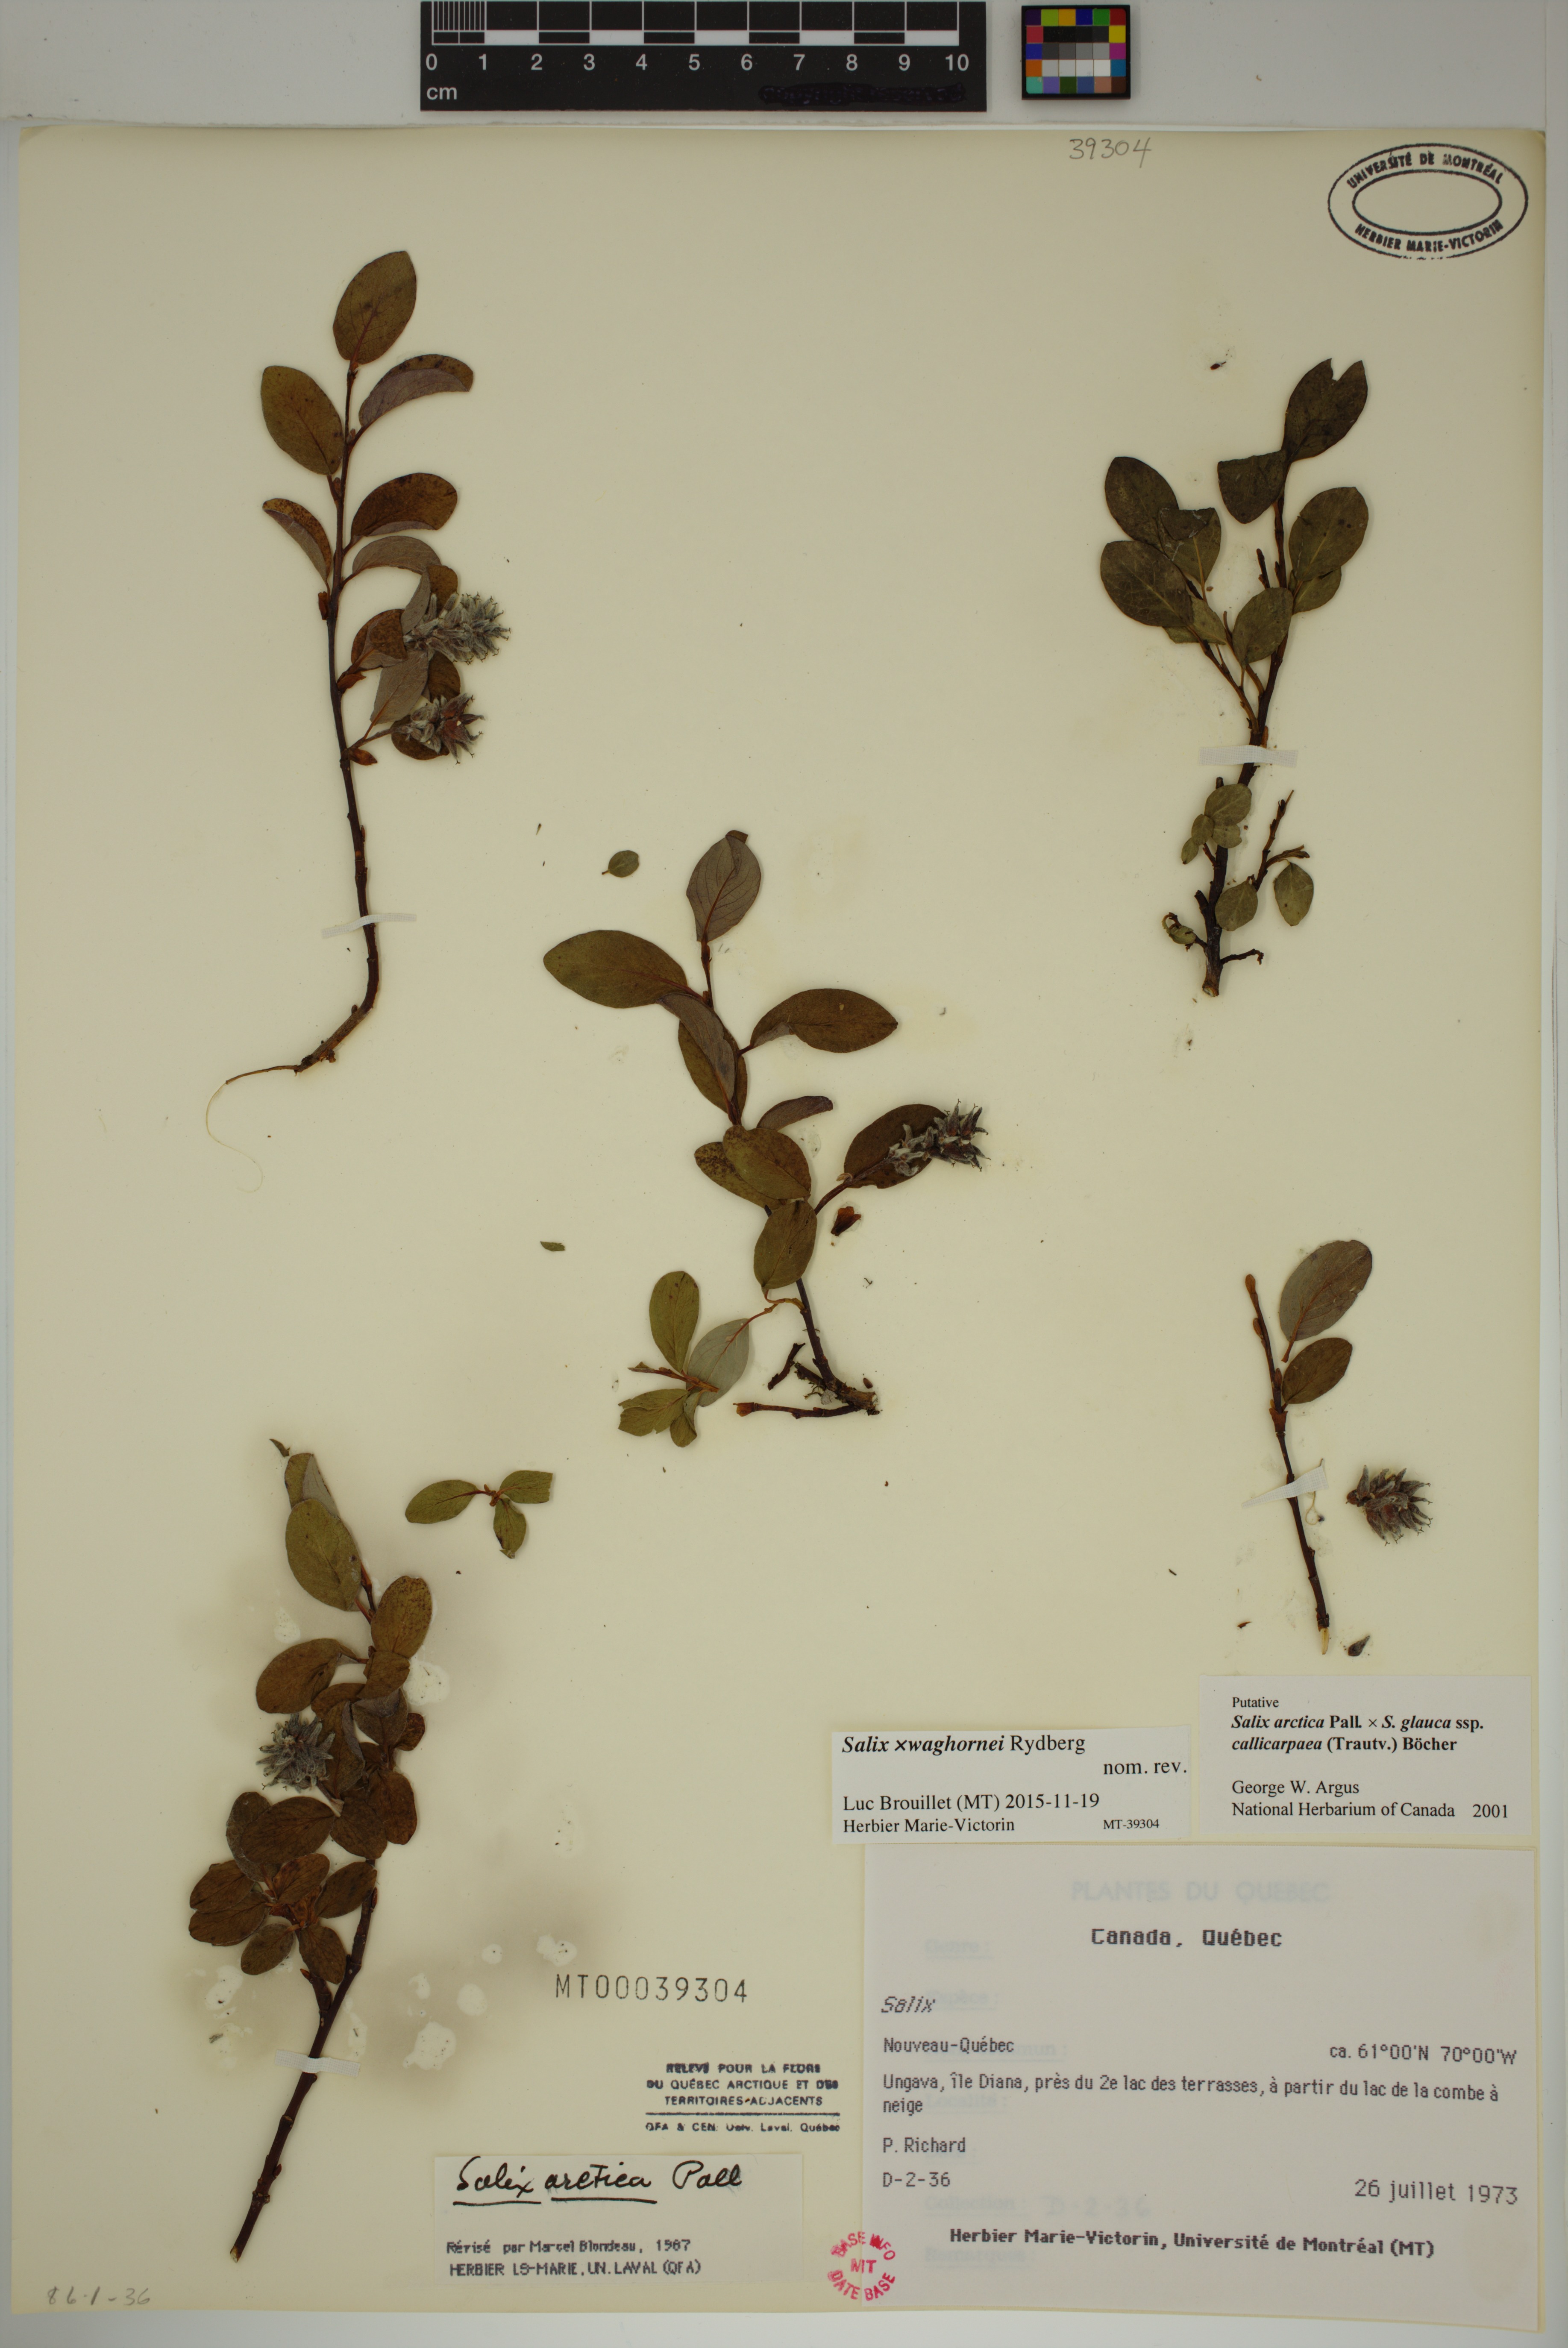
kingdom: Plantae
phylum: Tracheophyta
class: Magnoliopsida
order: Malpighiales
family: Salicaceae
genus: Salix
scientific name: Salix waghornei
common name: Waghorne's willow
